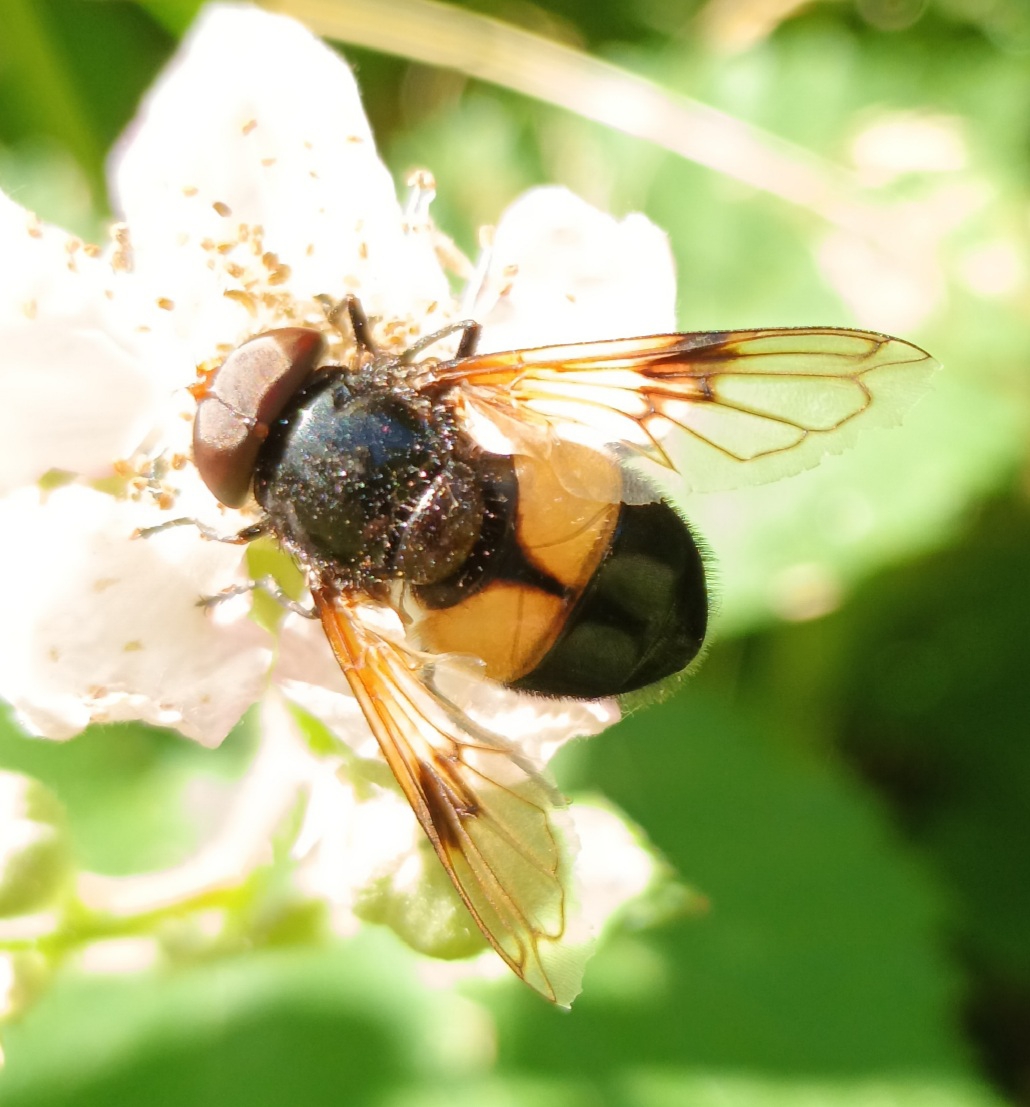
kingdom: Animalia
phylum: Arthropoda
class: Insecta
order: Diptera
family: Syrphidae
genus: Volucella
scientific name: Volucella pellucens
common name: Hvidbåndet humlesvirreflue
